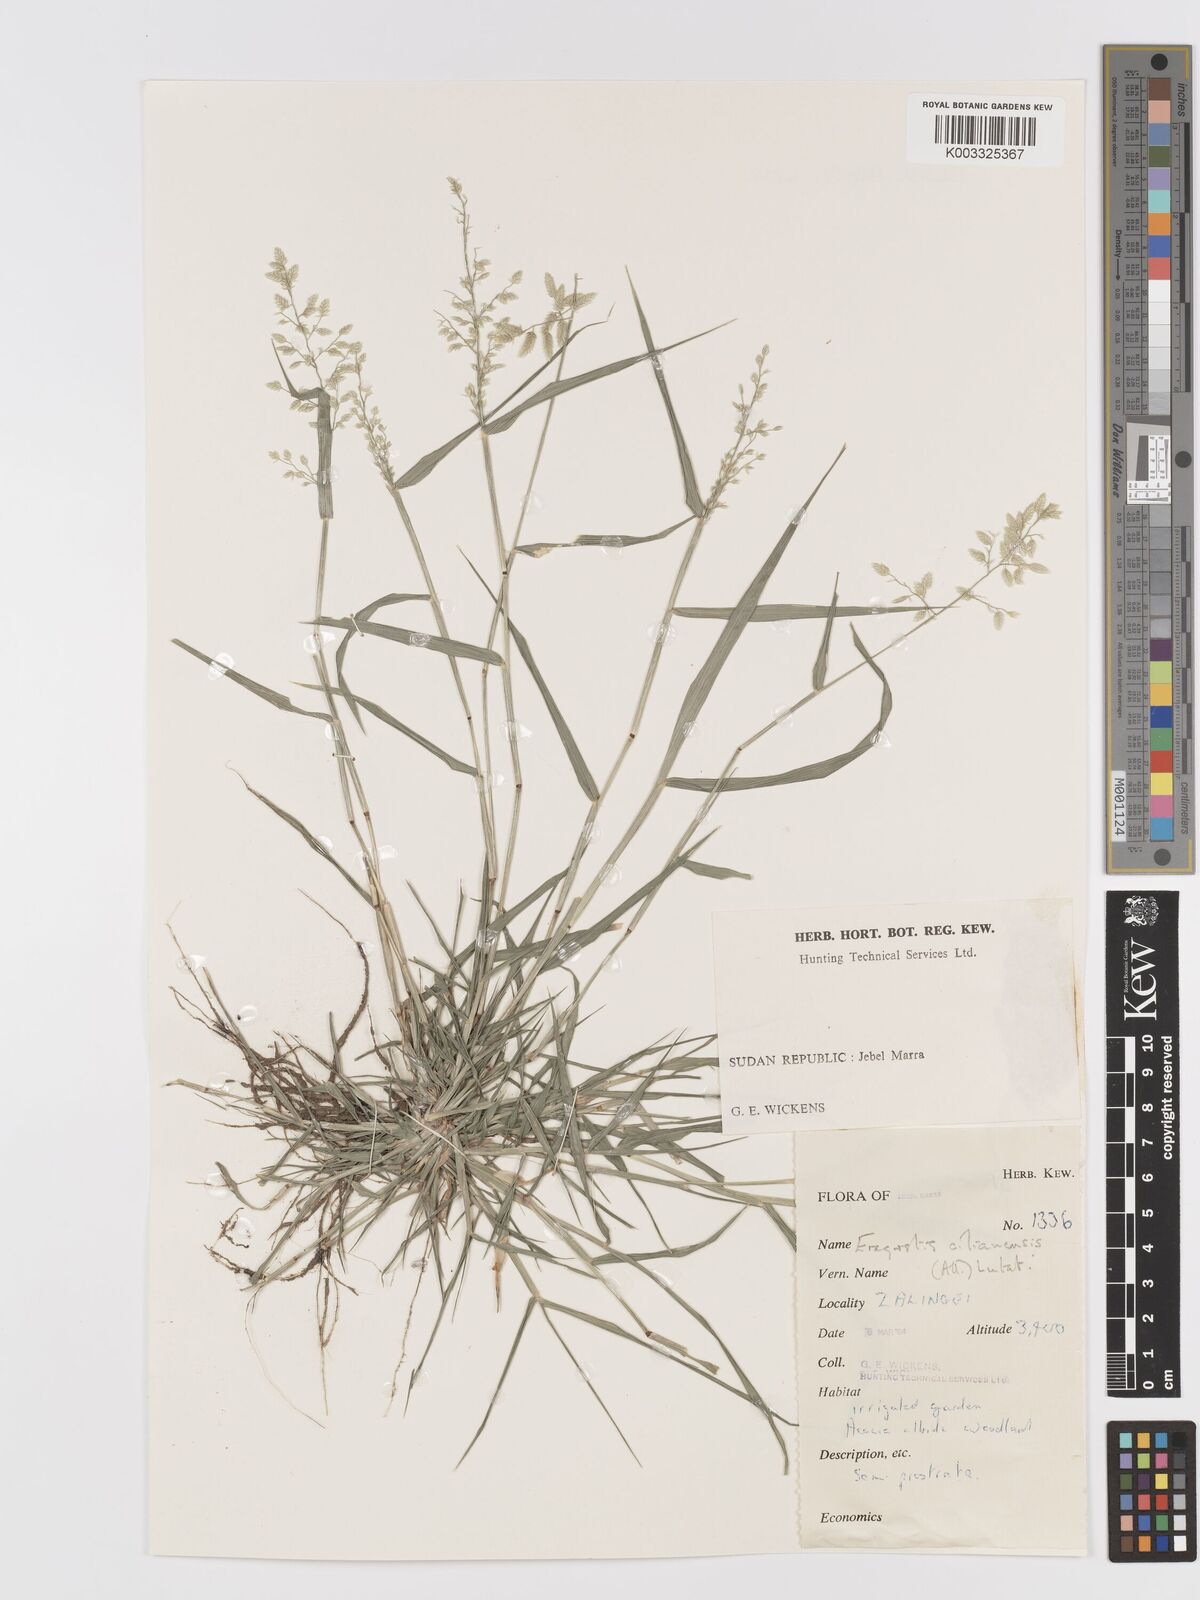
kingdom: Plantae
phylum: Tracheophyta
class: Liliopsida
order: Poales
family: Poaceae
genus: Eragrostis
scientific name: Eragrostis cilianensis
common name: Stinkgrass
